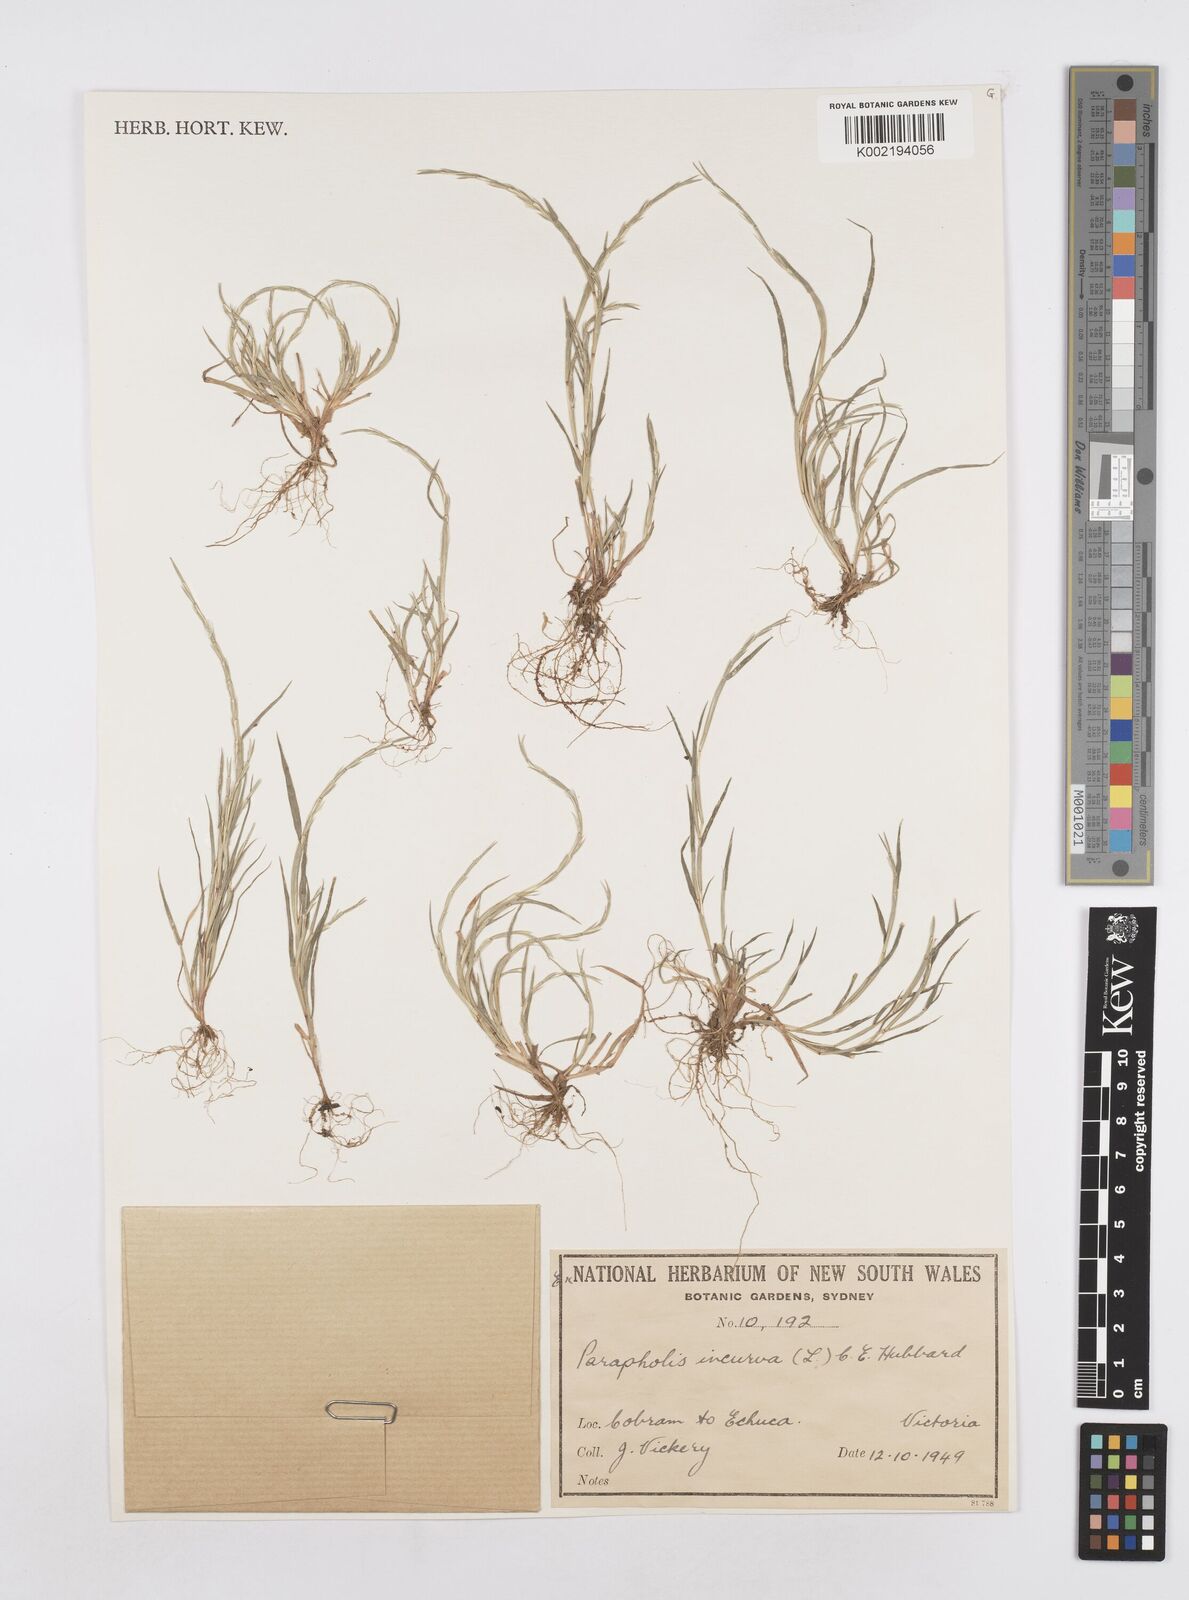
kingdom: Plantae
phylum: Tracheophyta
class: Liliopsida
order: Poales
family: Poaceae
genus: Parapholis
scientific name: Parapholis incurva
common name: Curved sicklegrass
